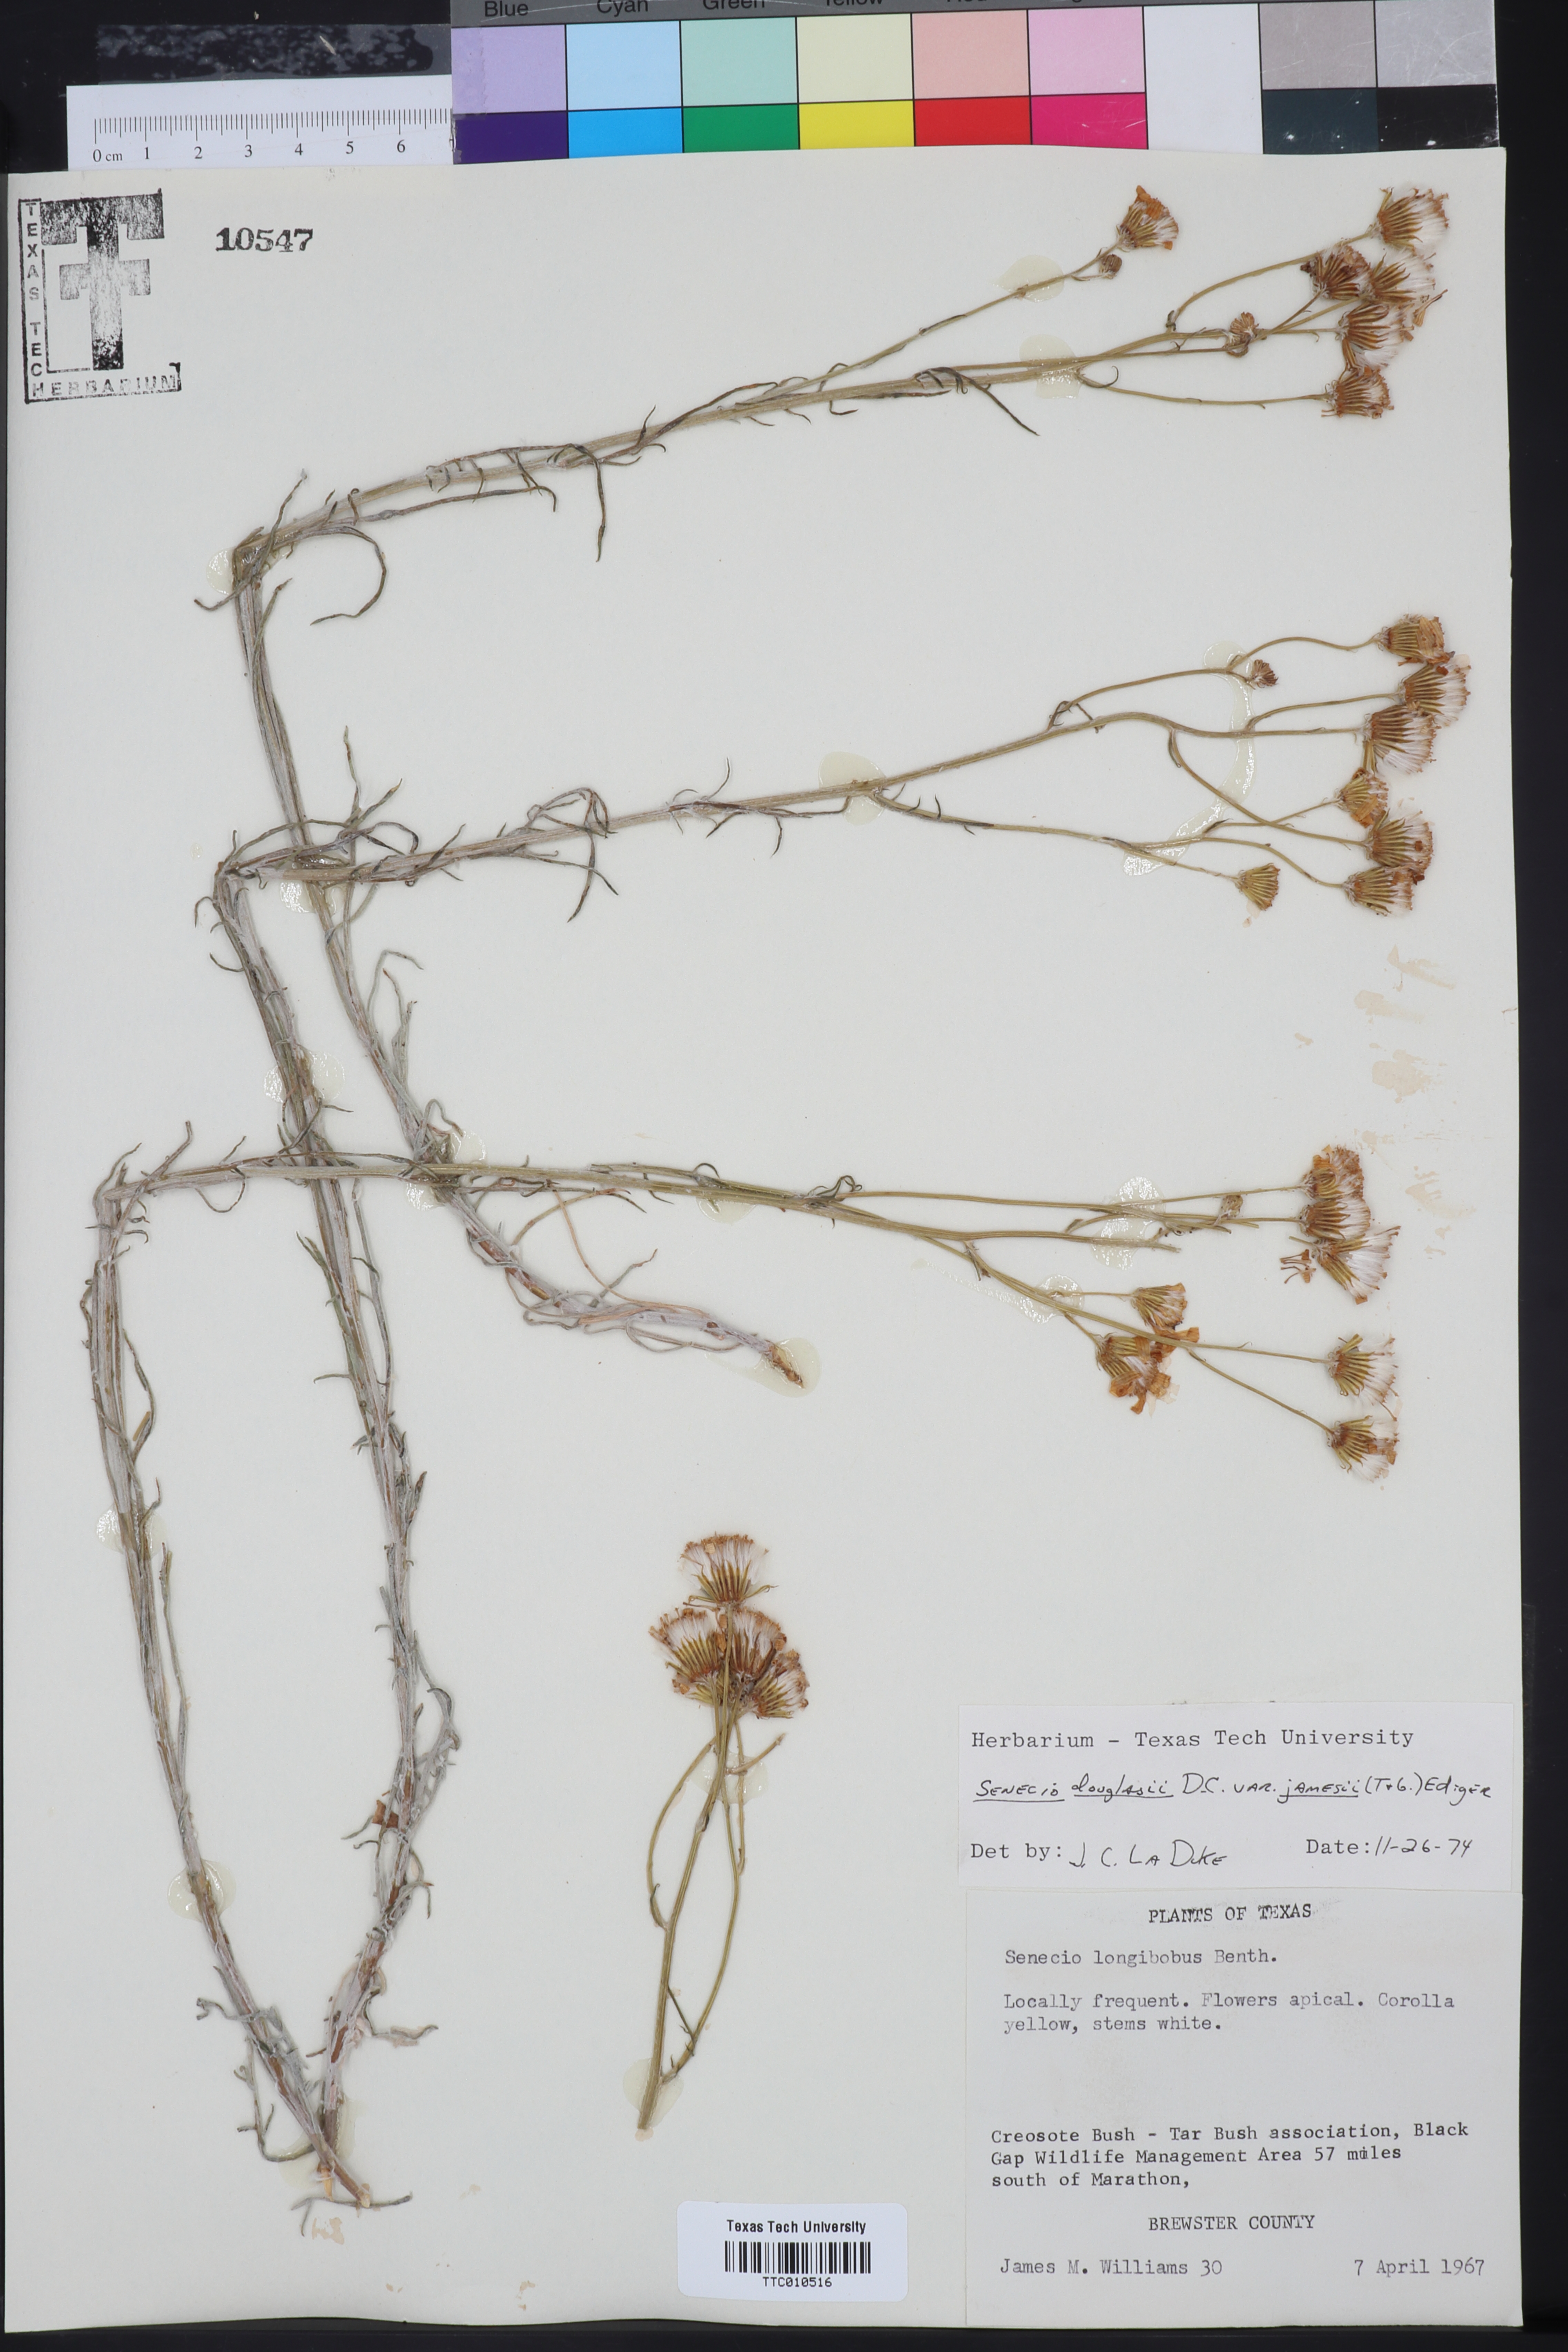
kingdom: Plantae
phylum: Tracheophyta
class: Magnoliopsida
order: Asterales
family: Asteraceae
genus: Senecio
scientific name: Senecio flaccidus
